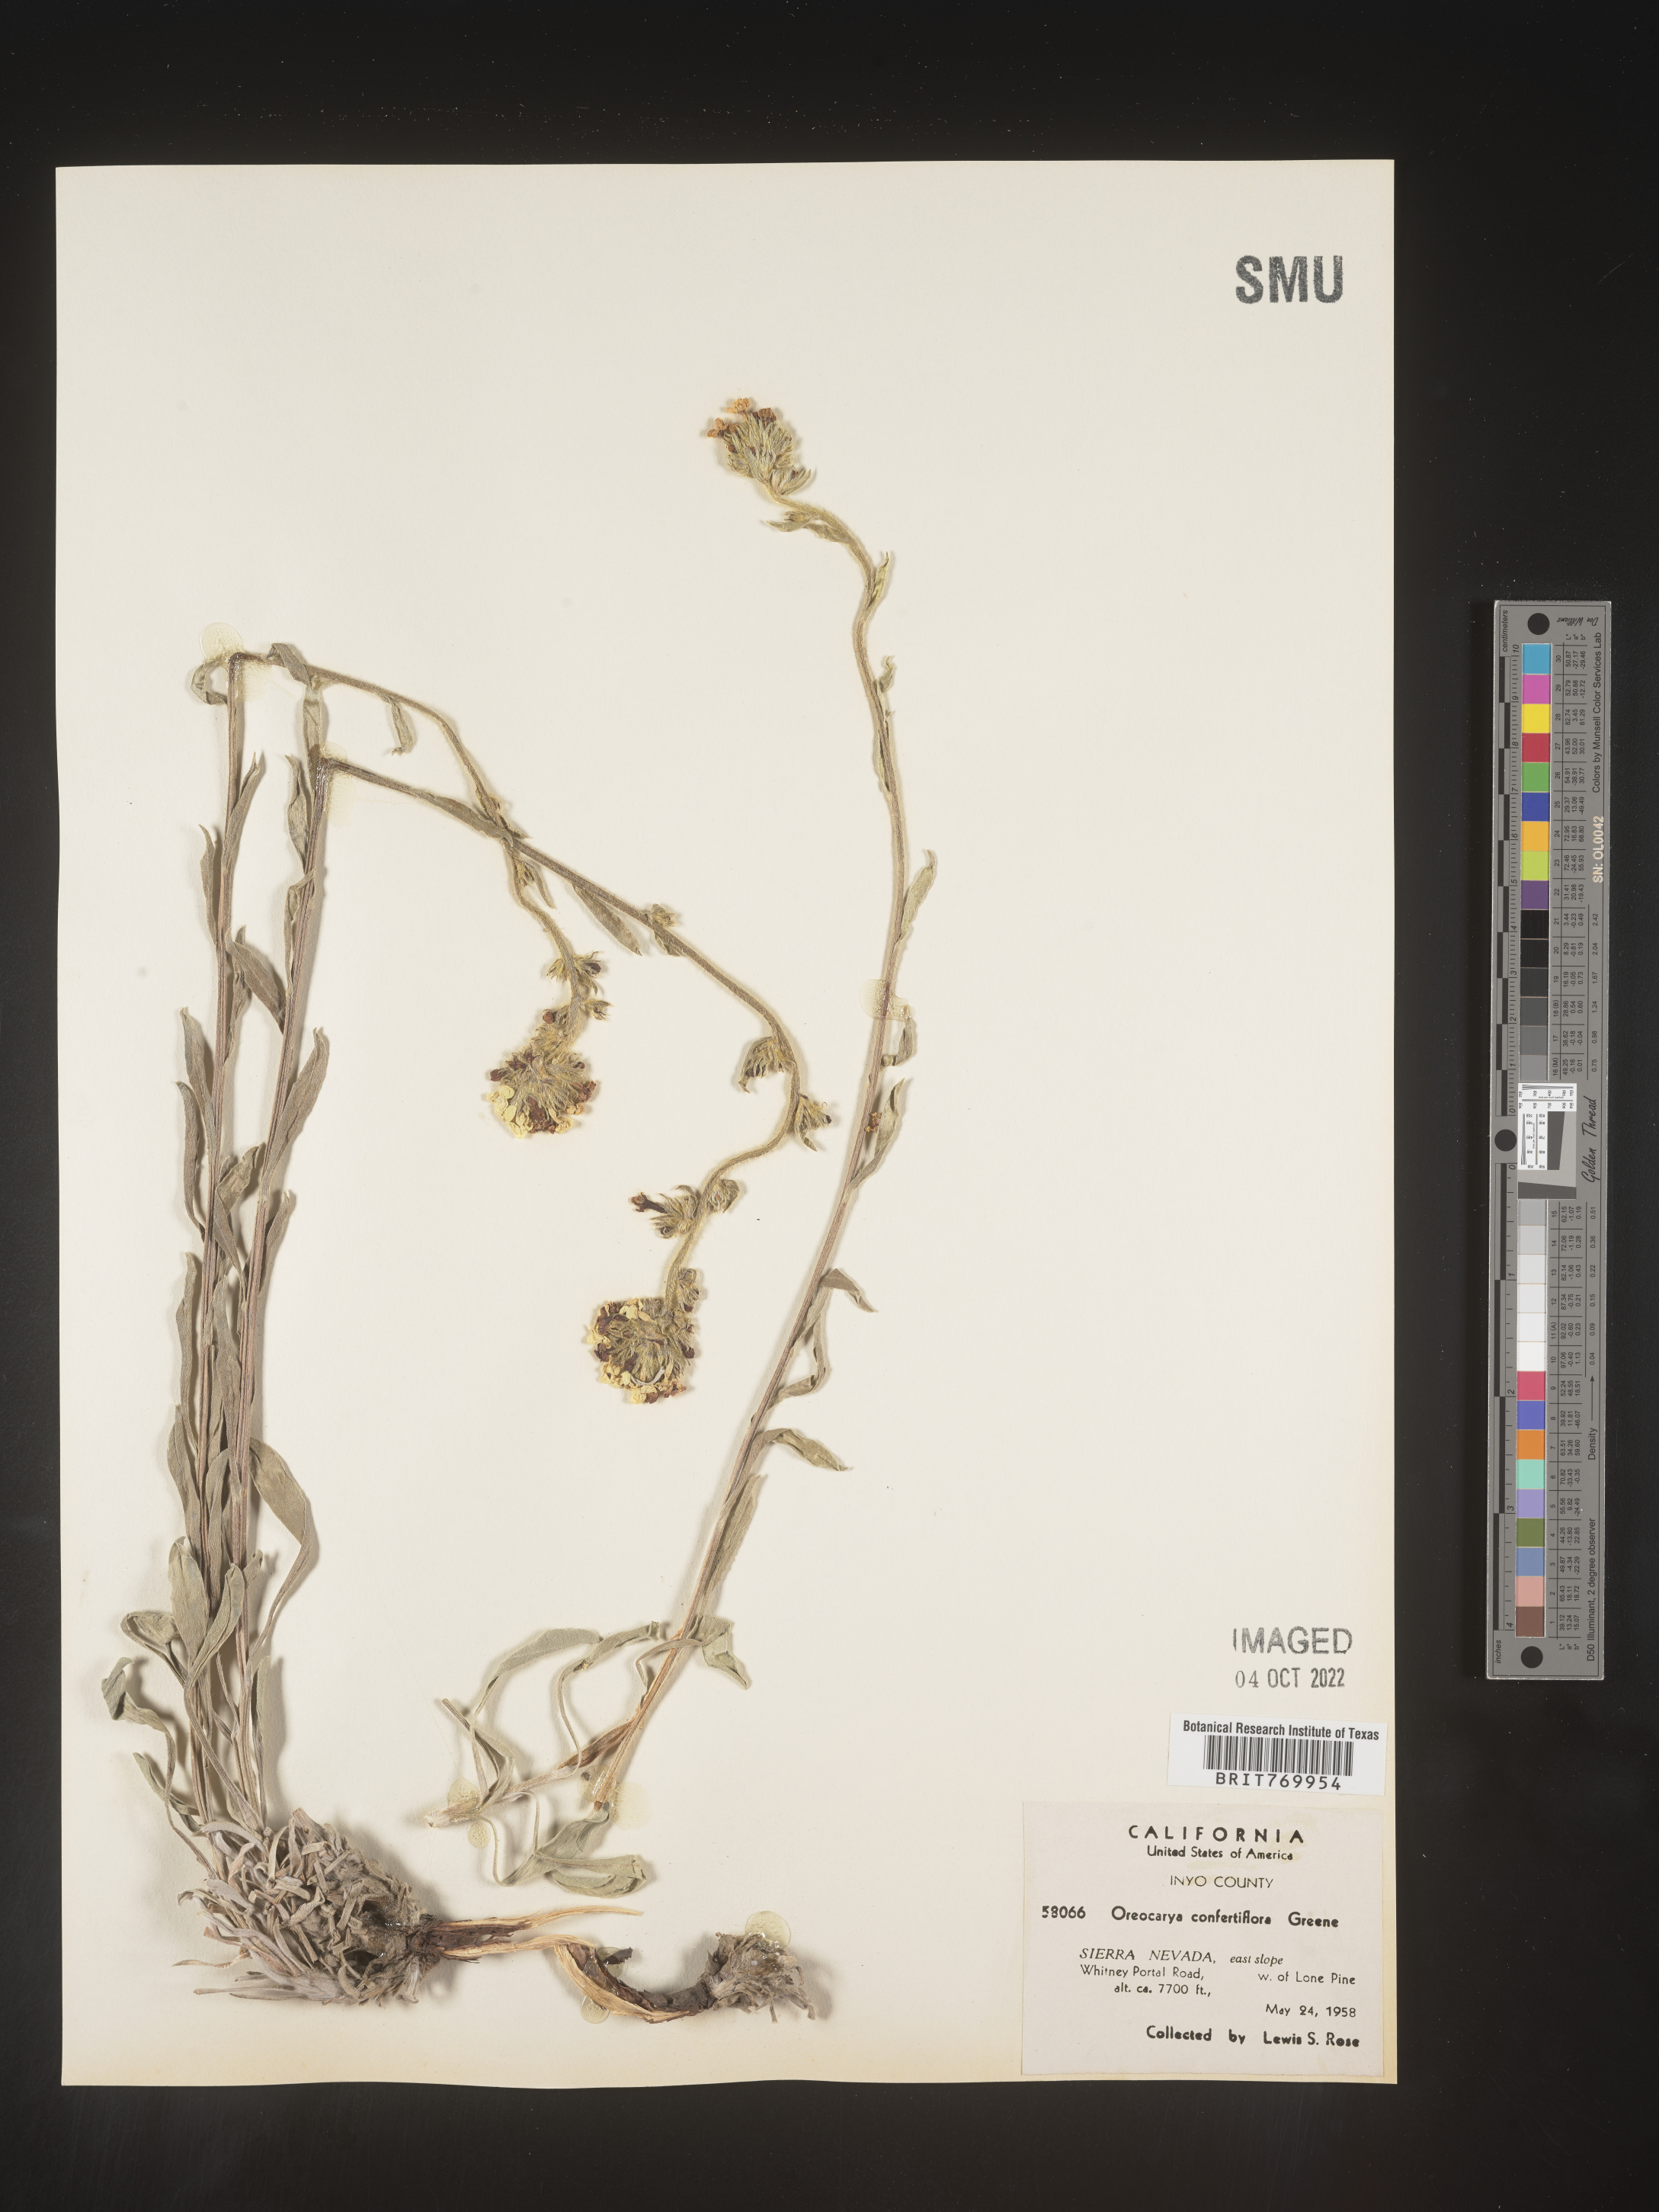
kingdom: Plantae
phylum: Tracheophyta
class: Magnoliopsida
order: Boraginales
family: Boraginaceae
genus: Oreocarya
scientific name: Oreocarya
